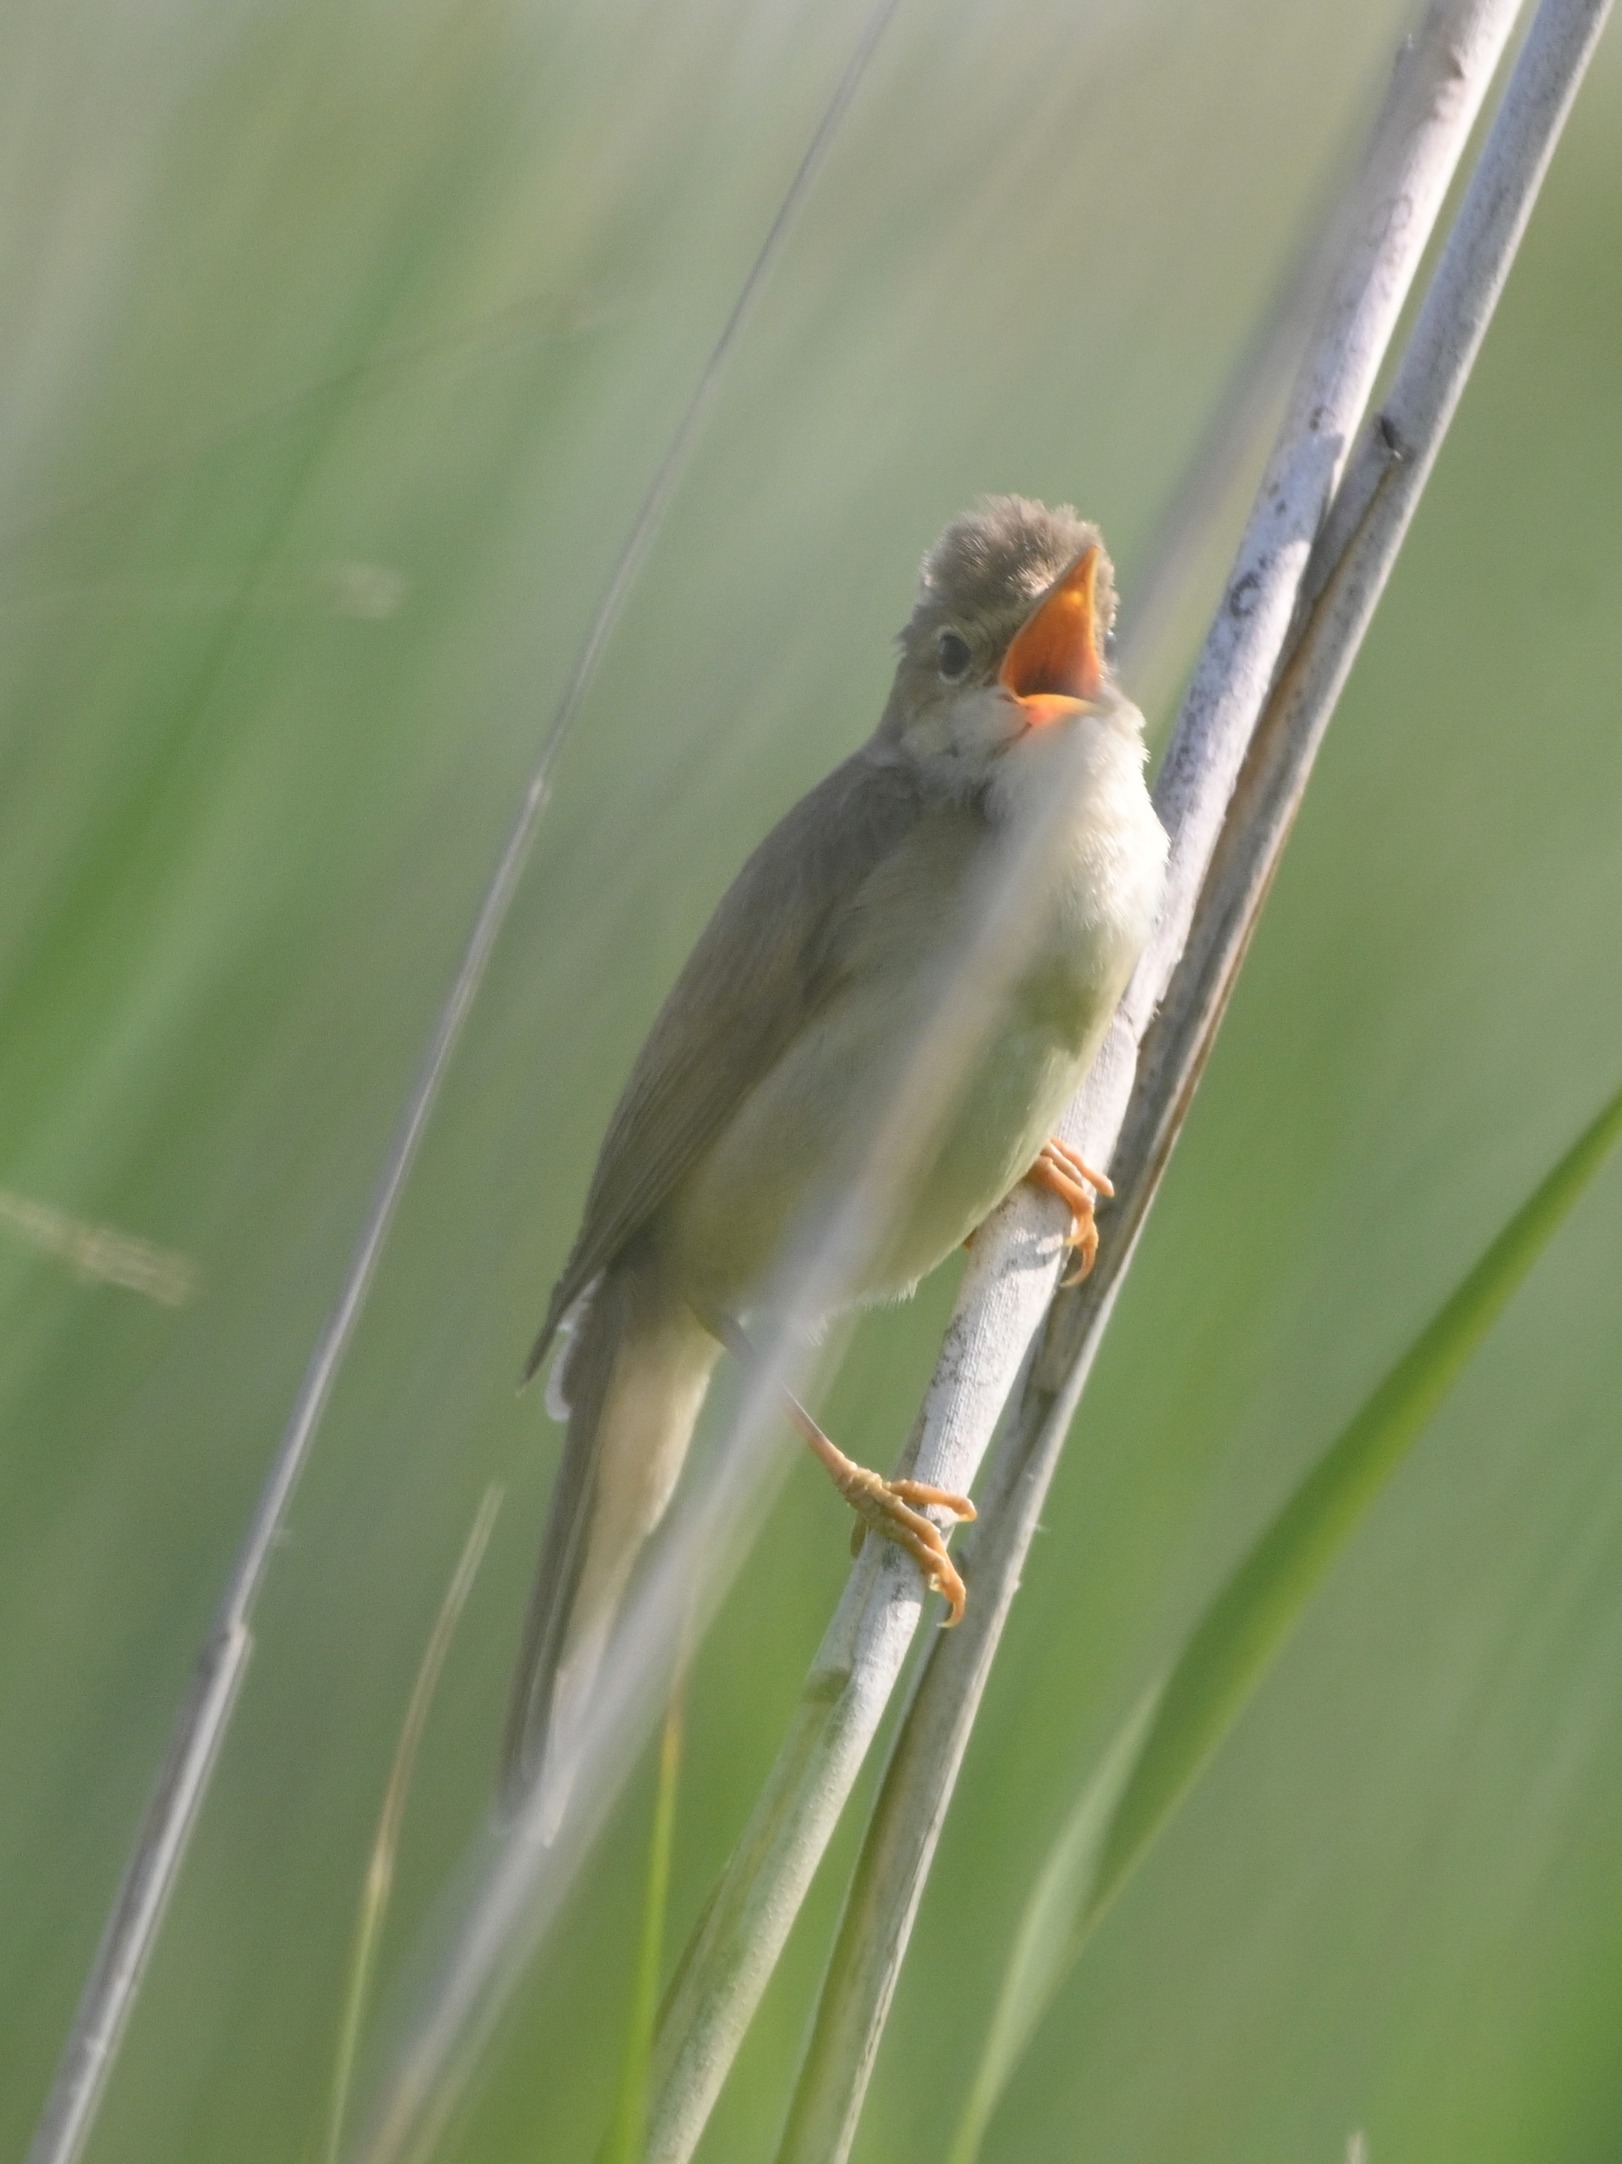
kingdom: Animalia
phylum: Chordata
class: Aves
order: Passeriformes
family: Acrocephalidae
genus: Acrocephalus
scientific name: Acrocephalus scirpaceus
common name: Rørsanger
